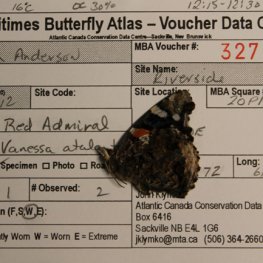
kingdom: Animalia
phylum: Arthropoda
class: Insecta
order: Lepidoptera
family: Nymphalidae
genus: Vanessa
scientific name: Vanessa atalanta
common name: Red Admiral
